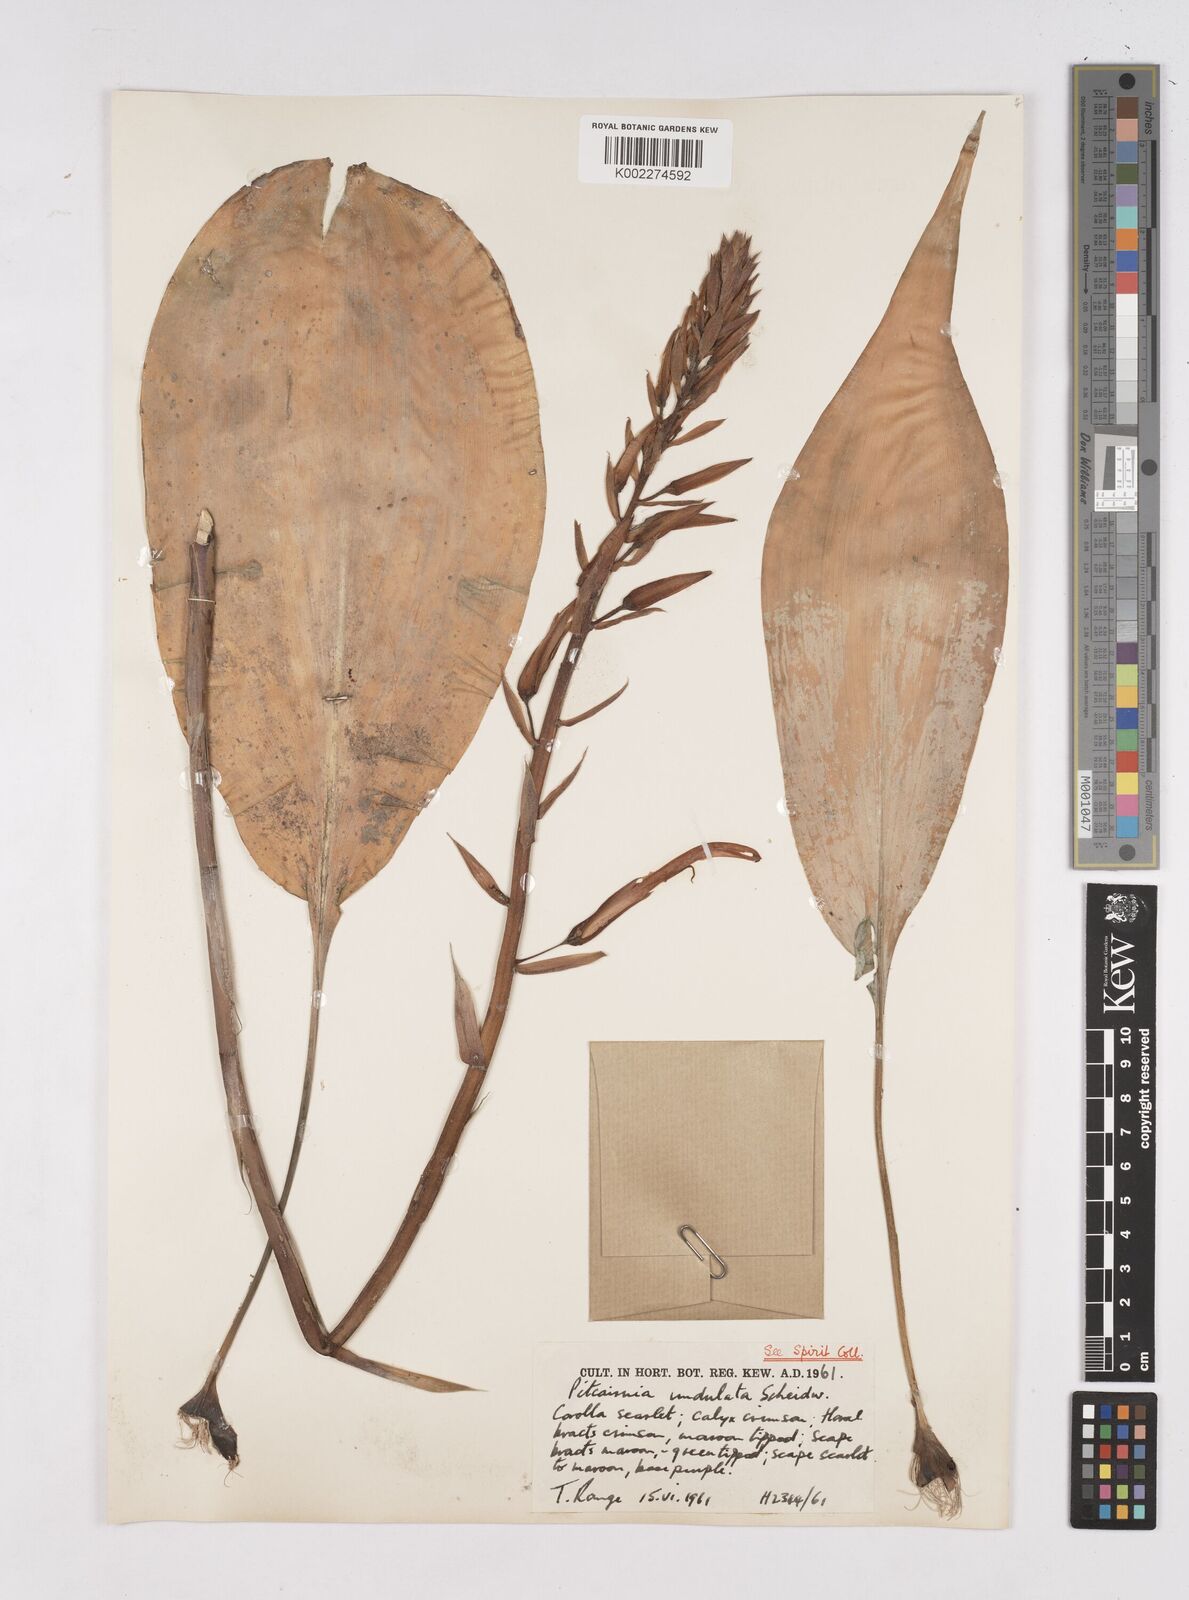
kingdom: Plantae
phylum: Tracheophyta
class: Liliopsida
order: Poales
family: Bromeliaceae
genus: Pitcairnia
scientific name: Pitcairnia undulata
